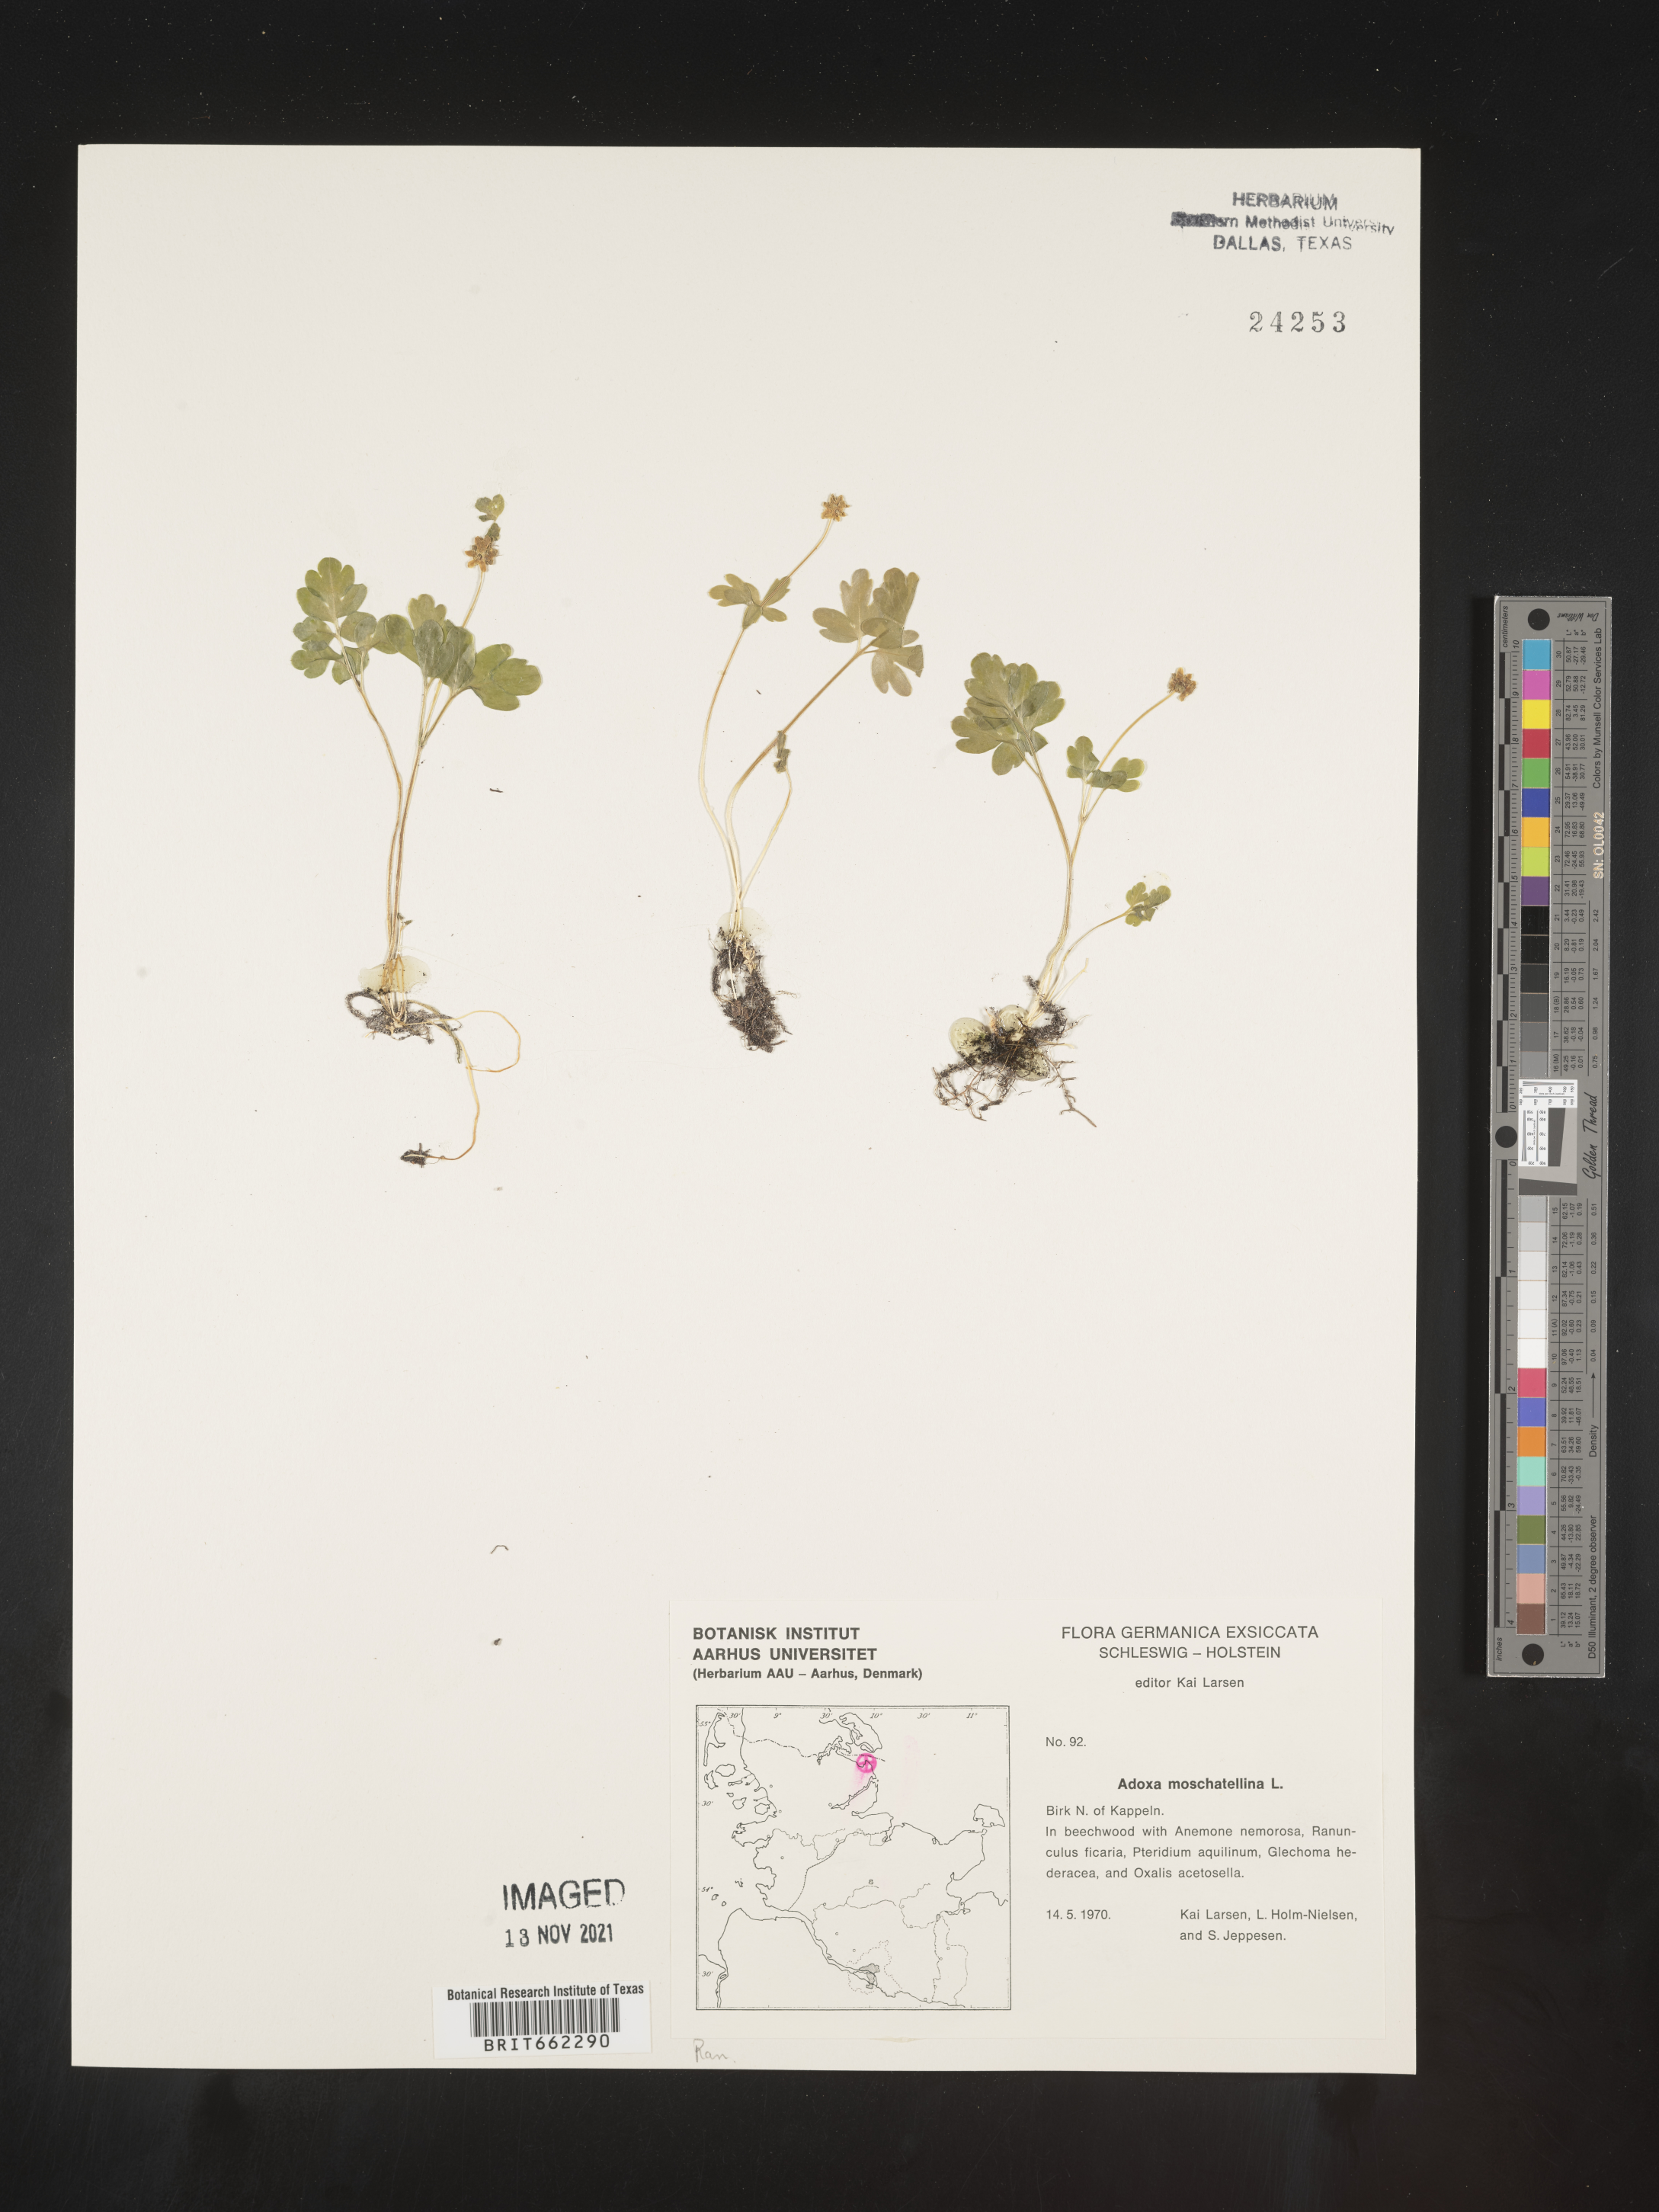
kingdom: Plantae
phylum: Tracheophyta
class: Magnoliopsida
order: Dipsacales
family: Viburnaceae
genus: Adoxa
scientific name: Adoxa
